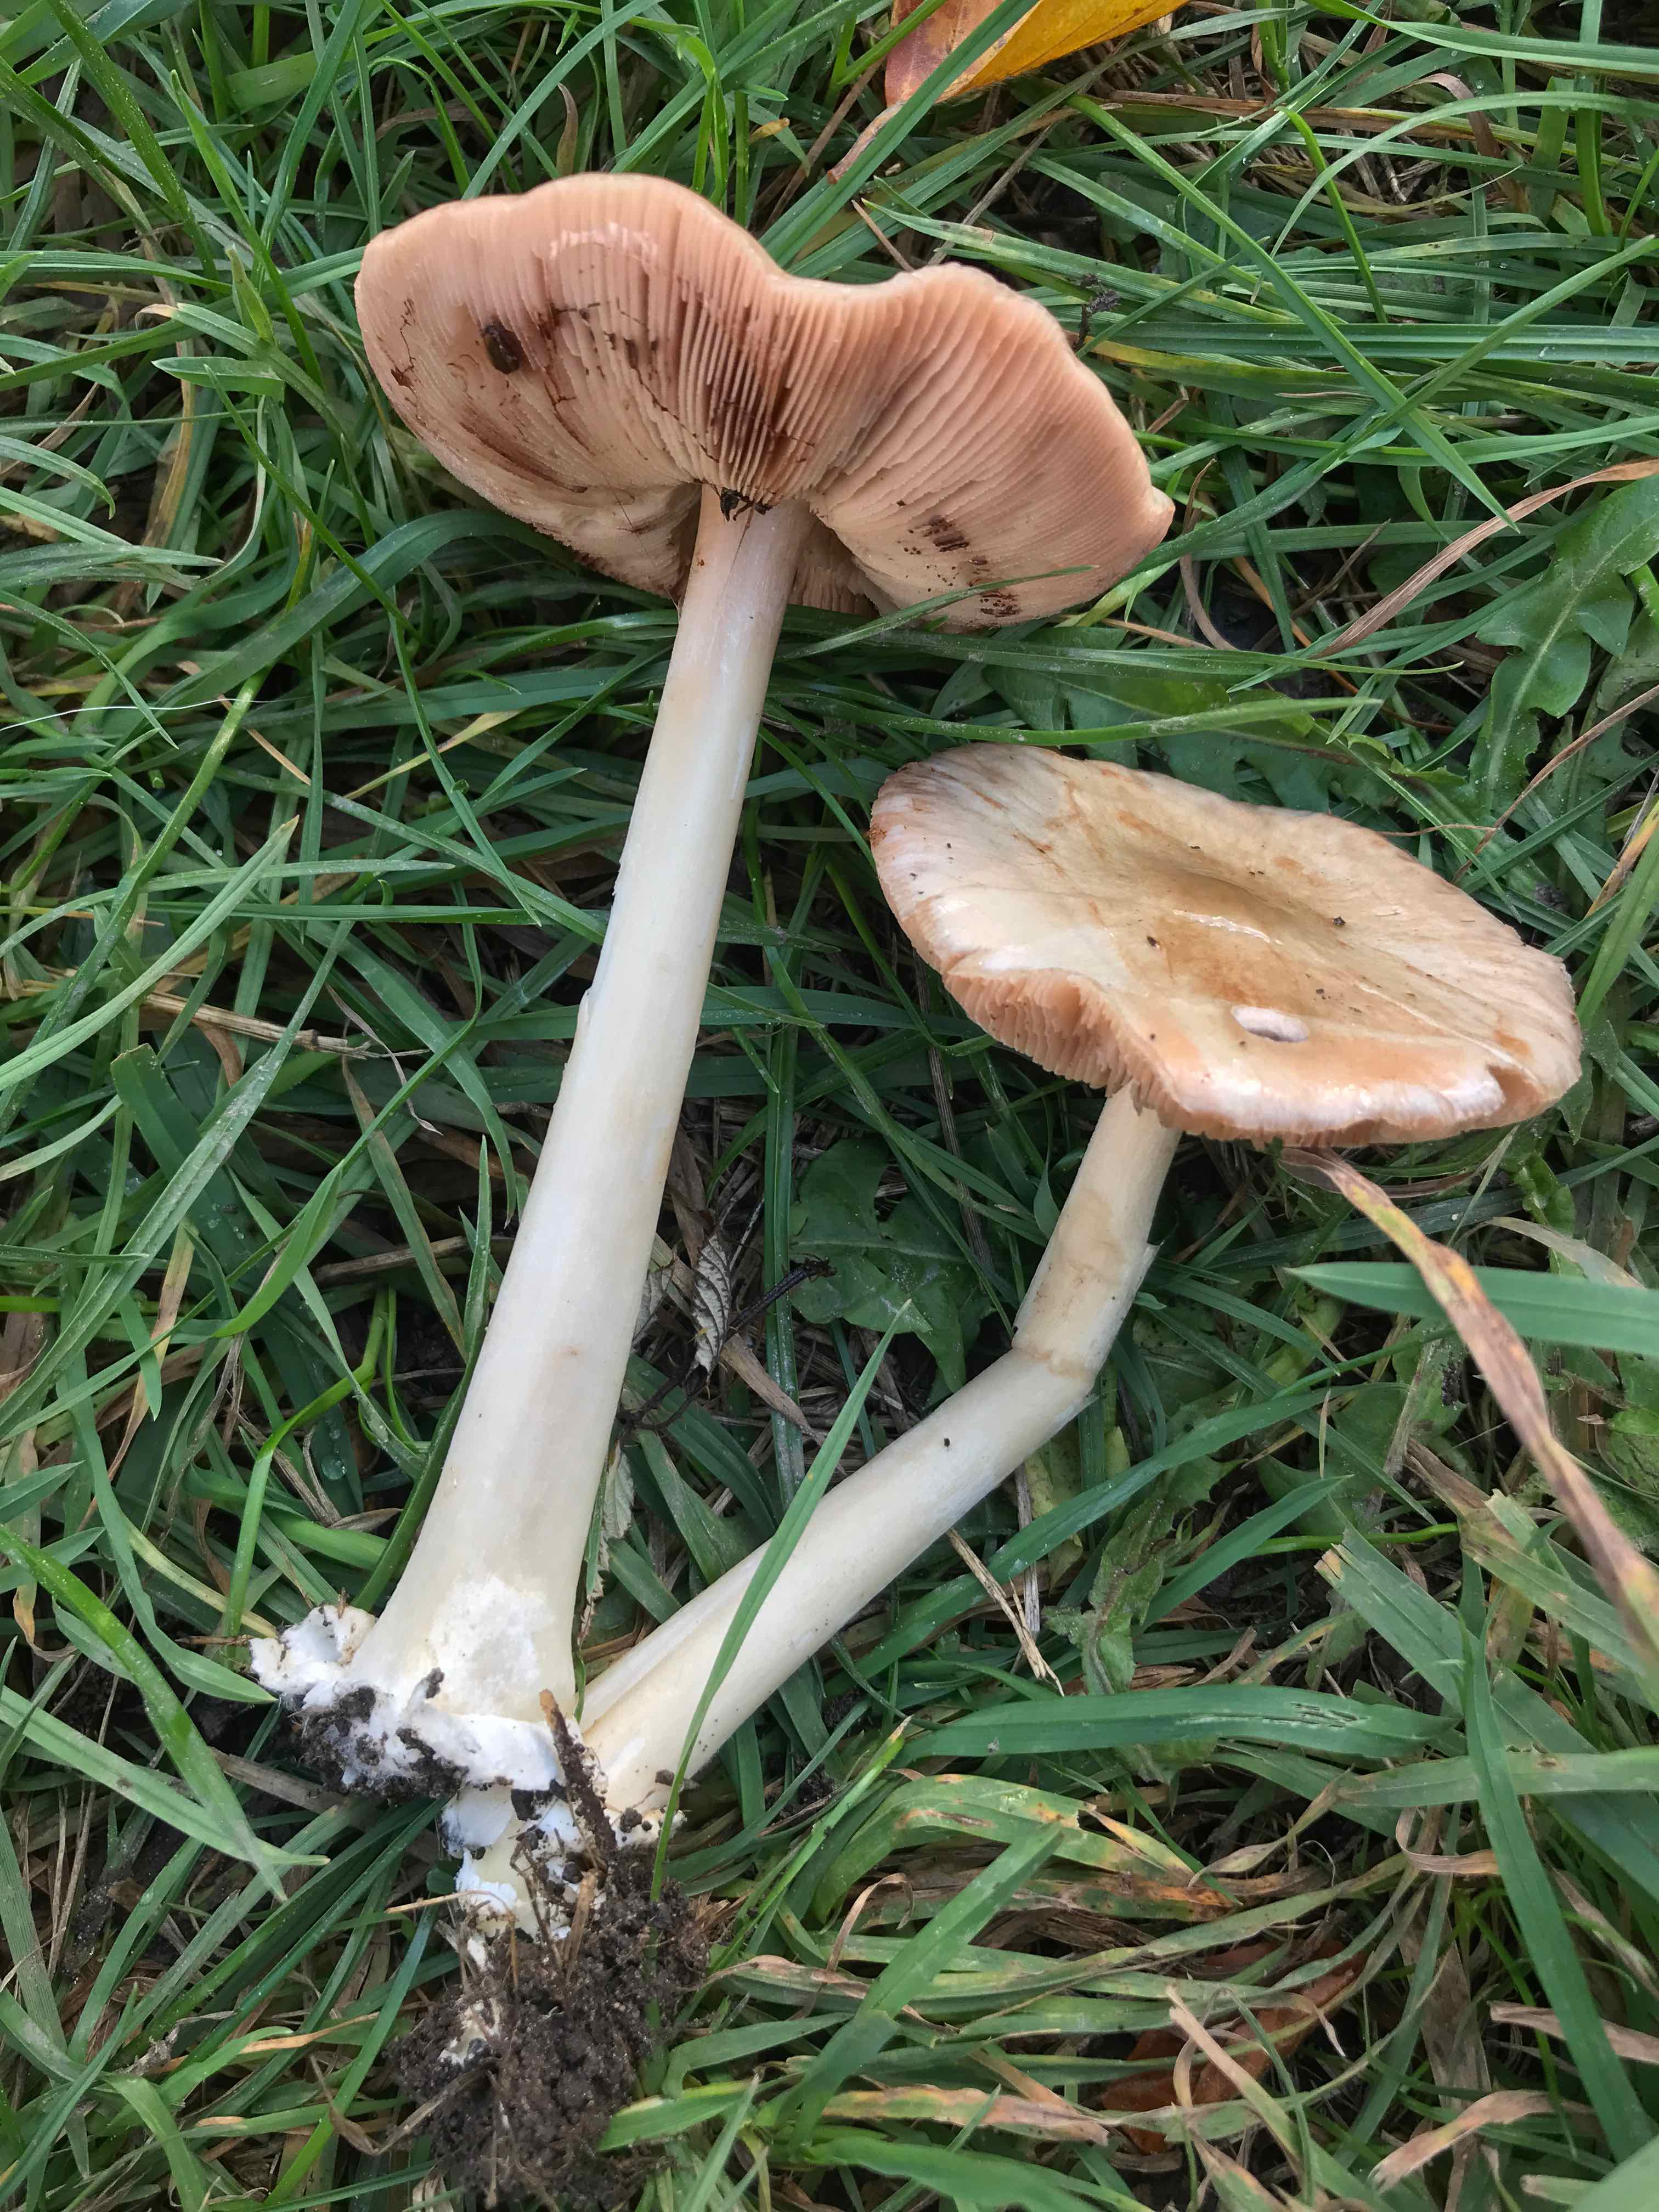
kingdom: Fungi
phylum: Basidiomycota
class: Agaricomycetes
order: Agaricales
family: Pluteaceae
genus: Volvopluteus
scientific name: Volvopluteus gloiocephalus
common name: høj posesvamp
